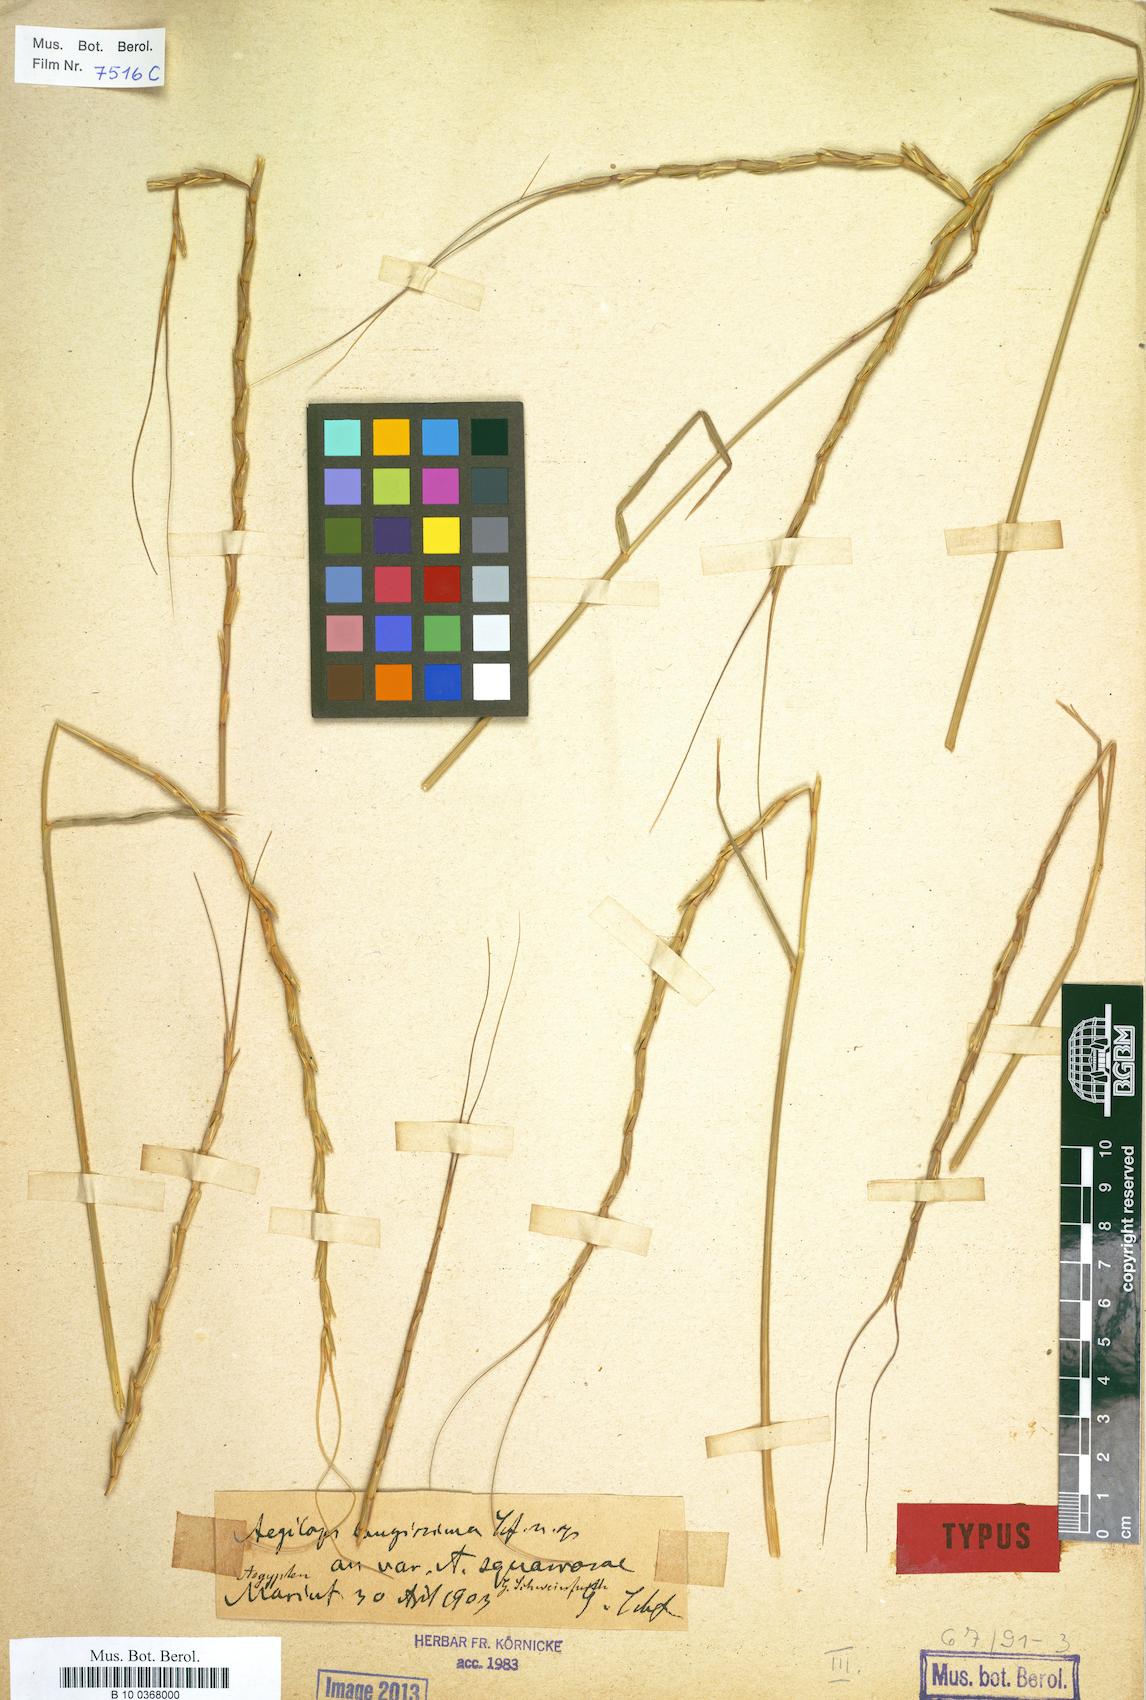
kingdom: Plantae
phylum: Tracheophyta
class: Liliopsida
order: Poales
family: Poaceae
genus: Aegilops
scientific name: Aegilops longissima
